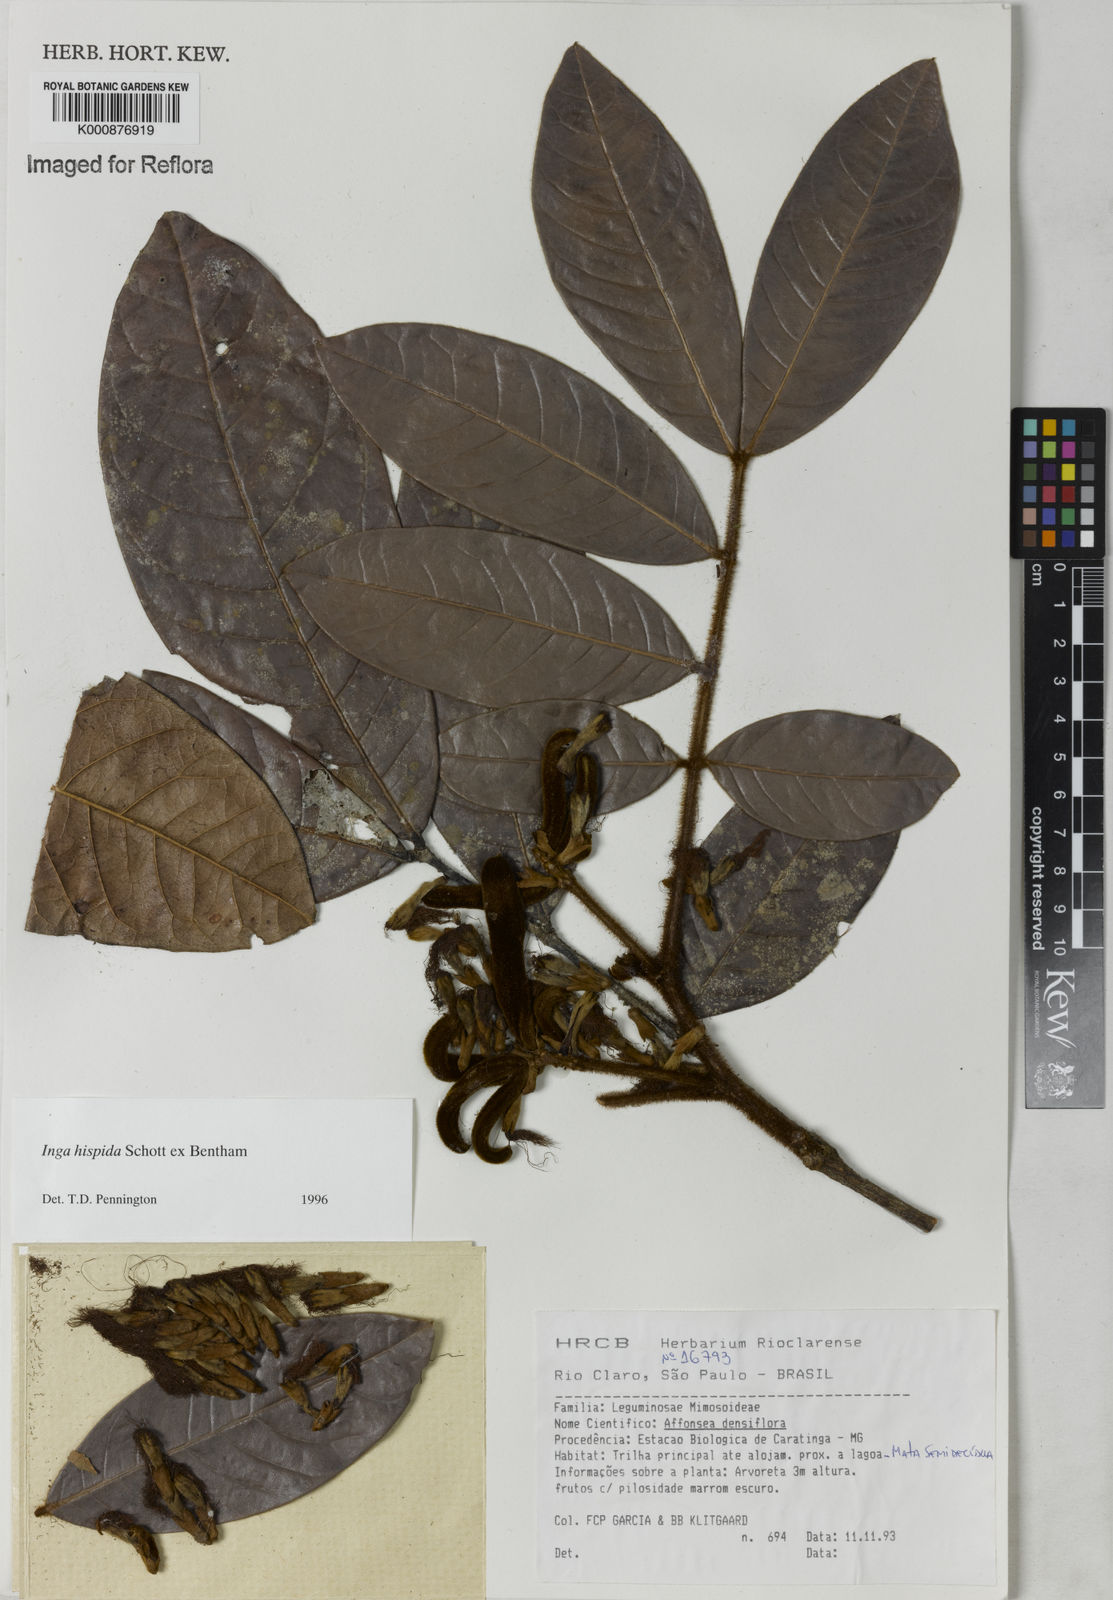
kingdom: Plantae
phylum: Tracheophyta
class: Magnoliopsida
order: Fabales
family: Fabaceae
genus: Inga
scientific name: Inga hispida
